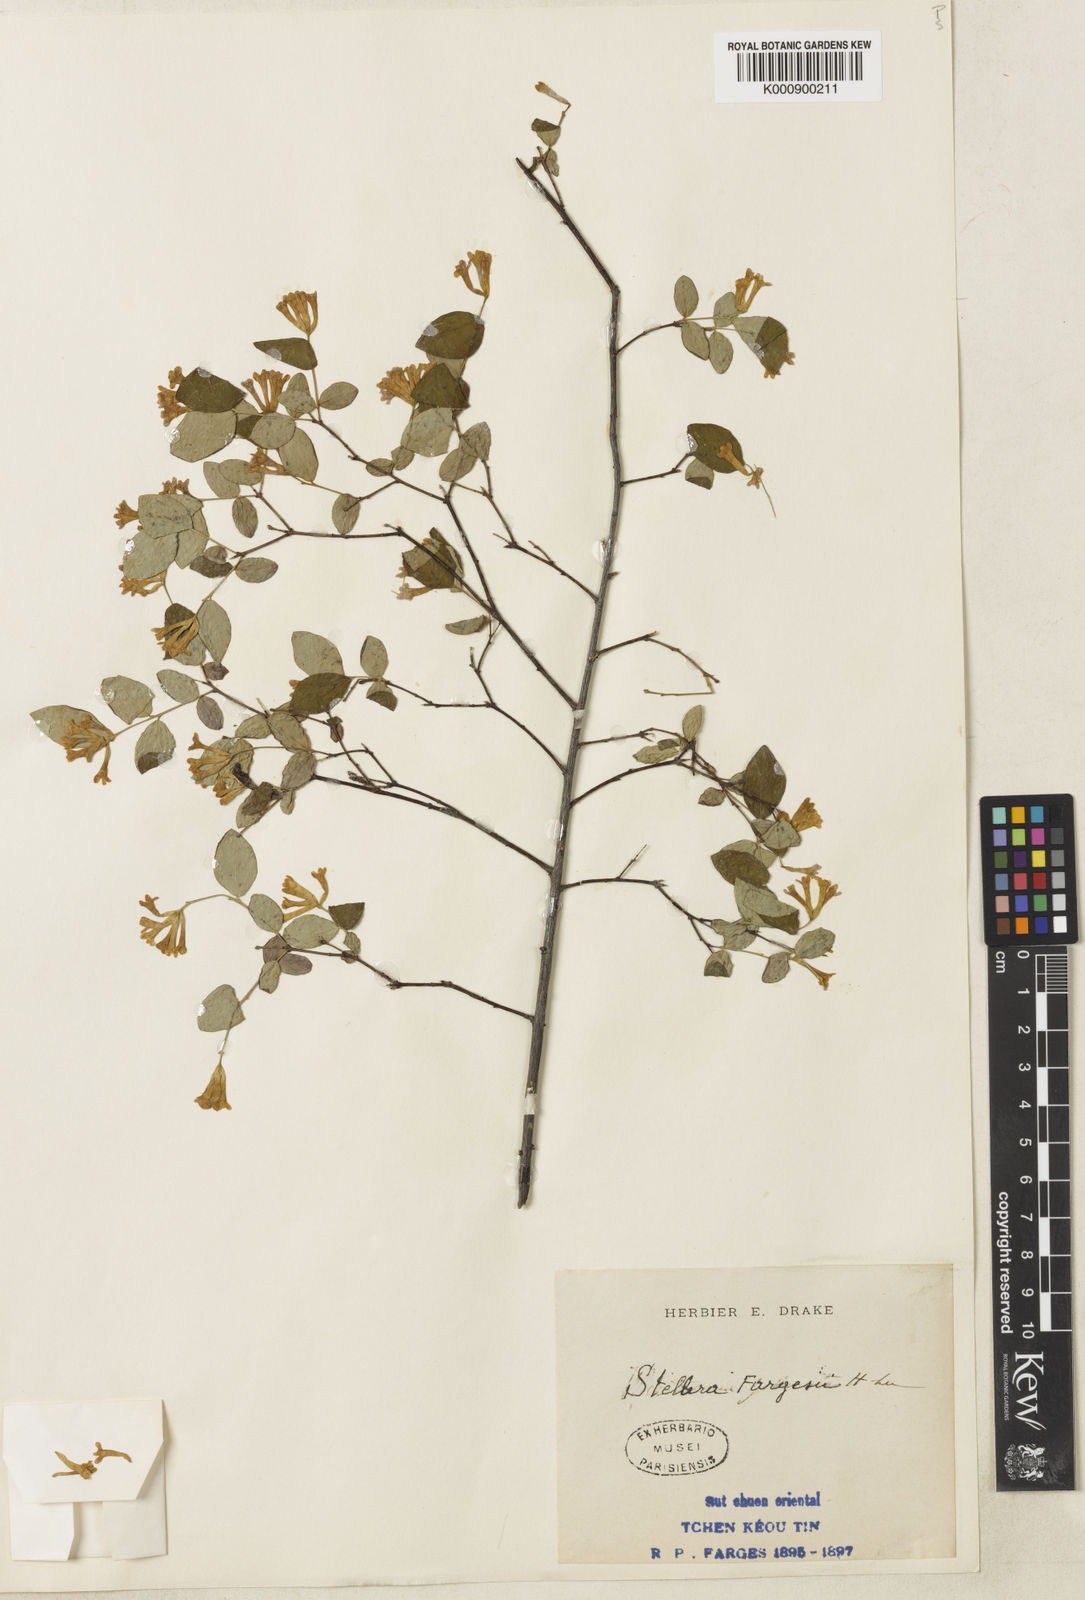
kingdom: Plantae
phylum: Tracheophyta
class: Magnoliopsida
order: Malvales
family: Thymelaeaceae
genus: Wikstroemia
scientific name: Wikstroemia fargesii
